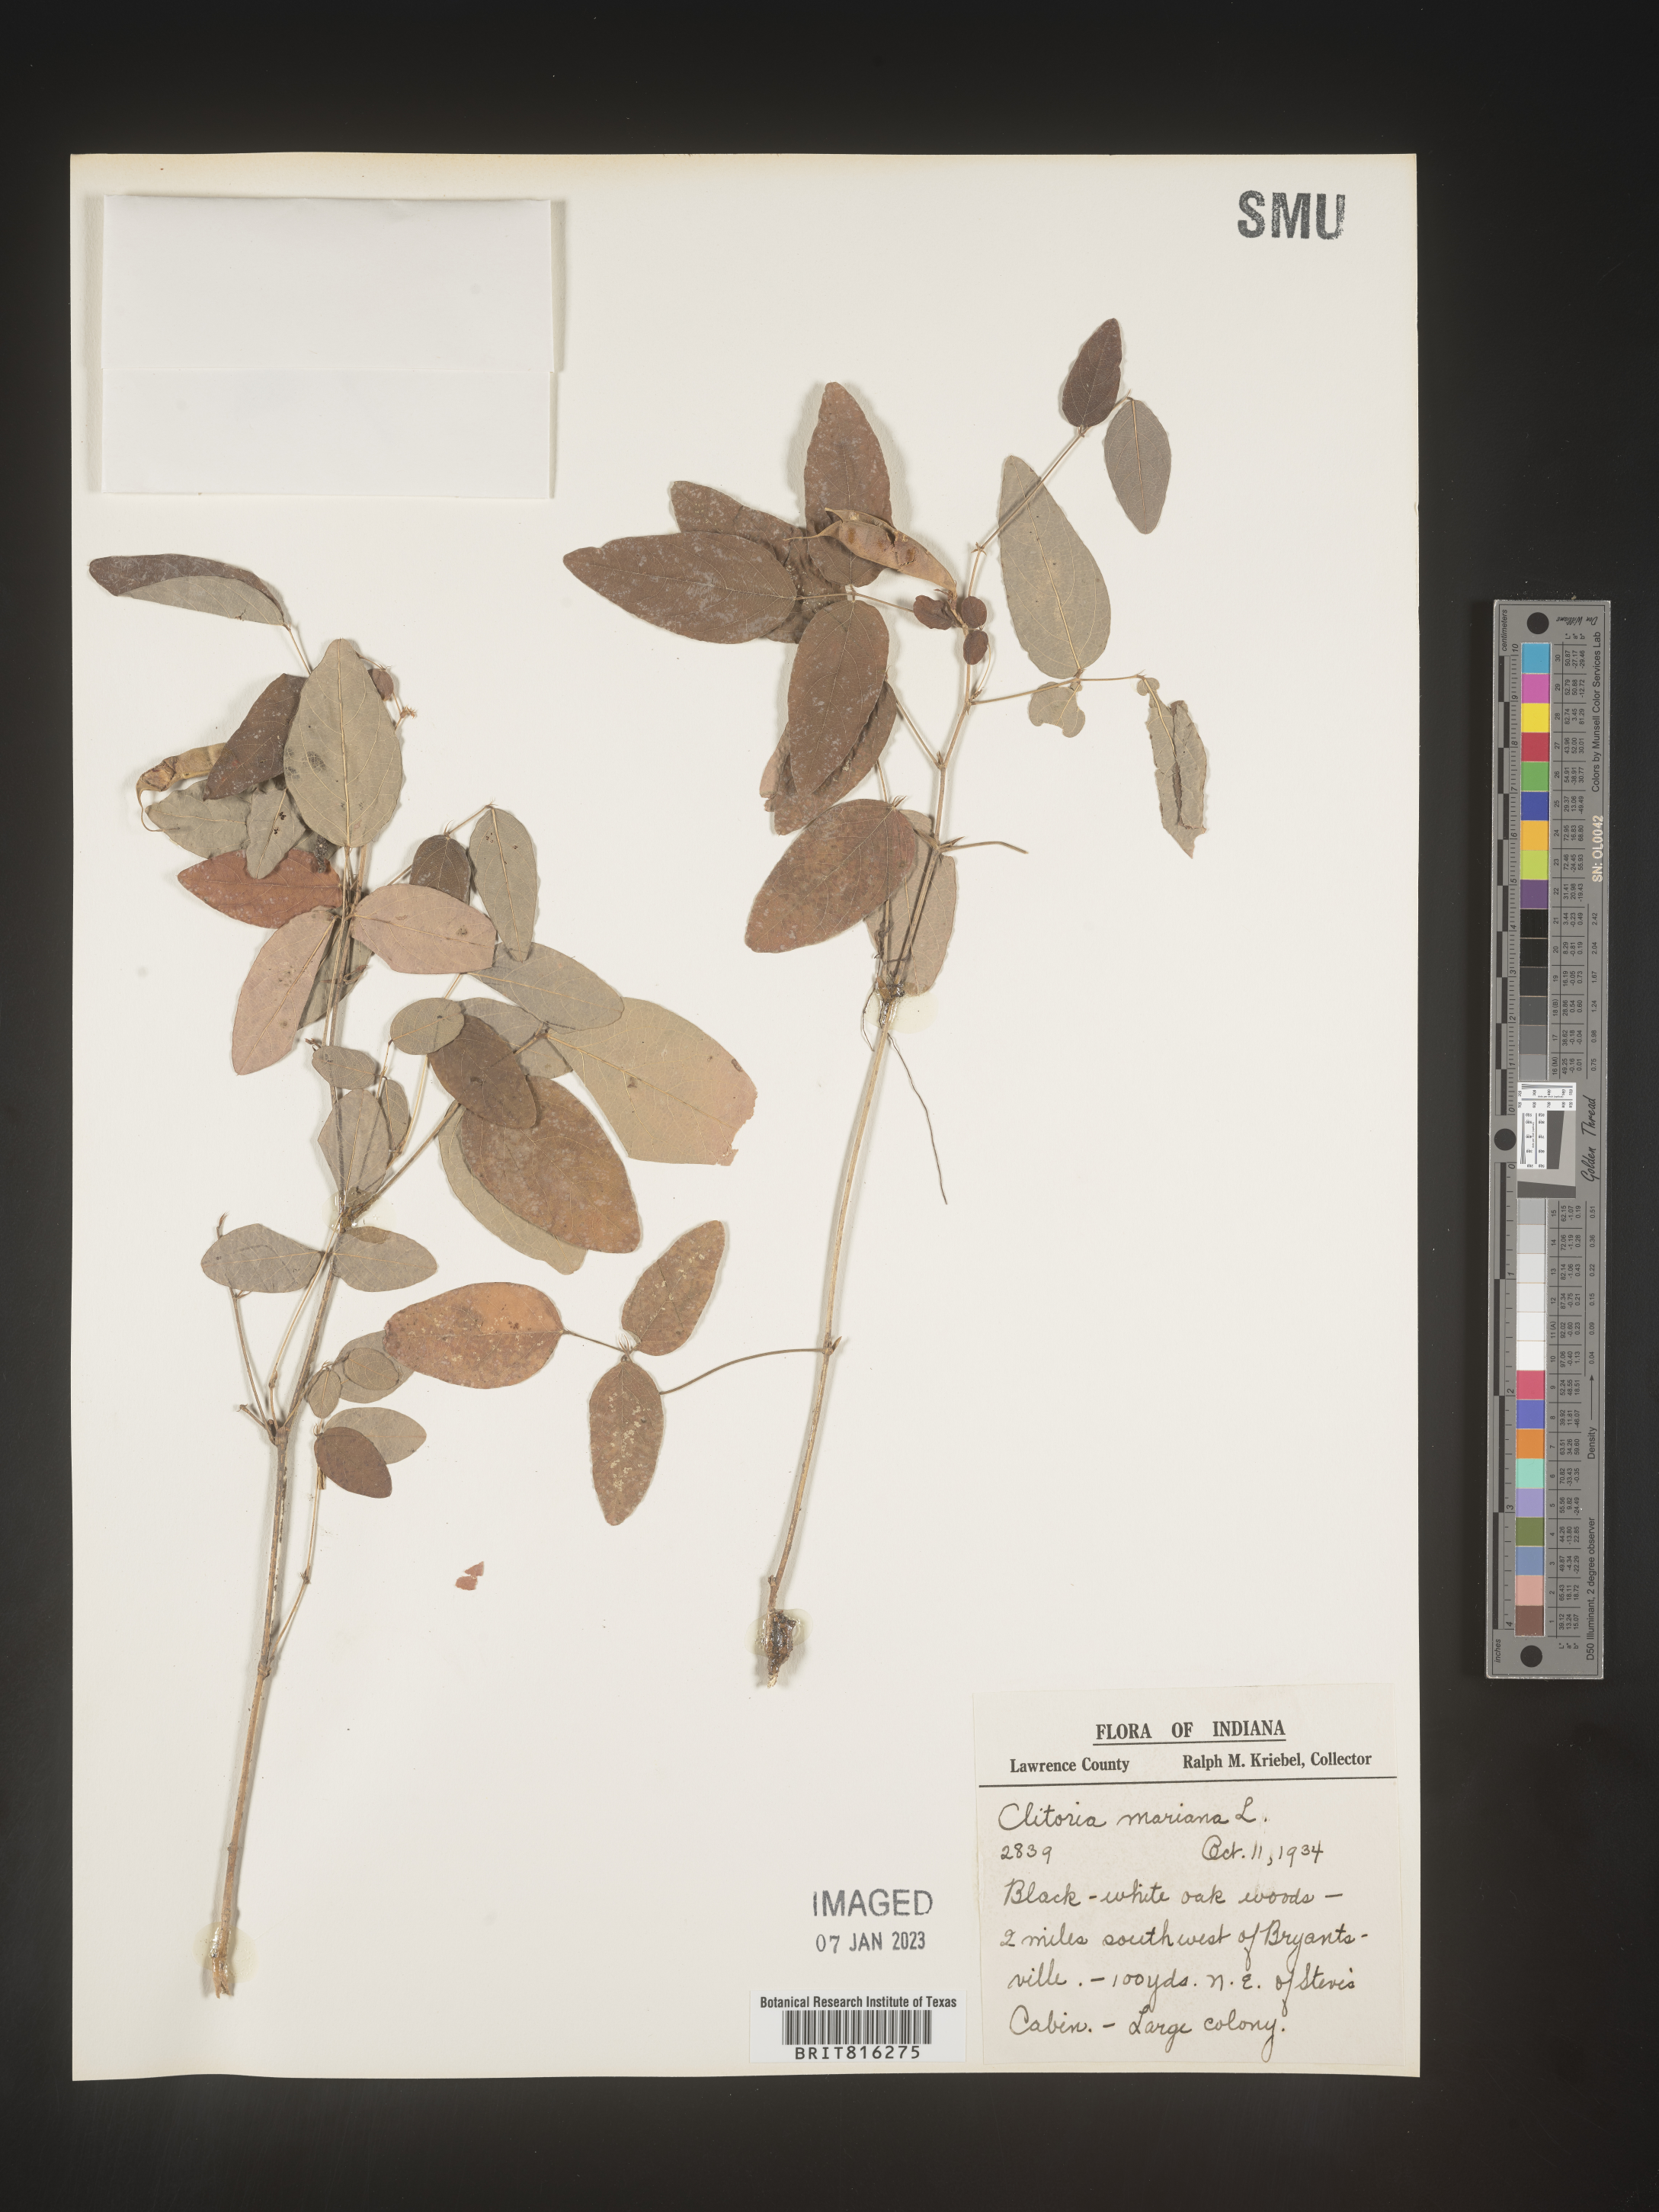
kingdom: Plantae
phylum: Tracheophyta
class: Magnoliopsida
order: Fabales
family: Fabaceae
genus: Clitoria
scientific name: Clitoria mariana
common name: Butterfly-pea
